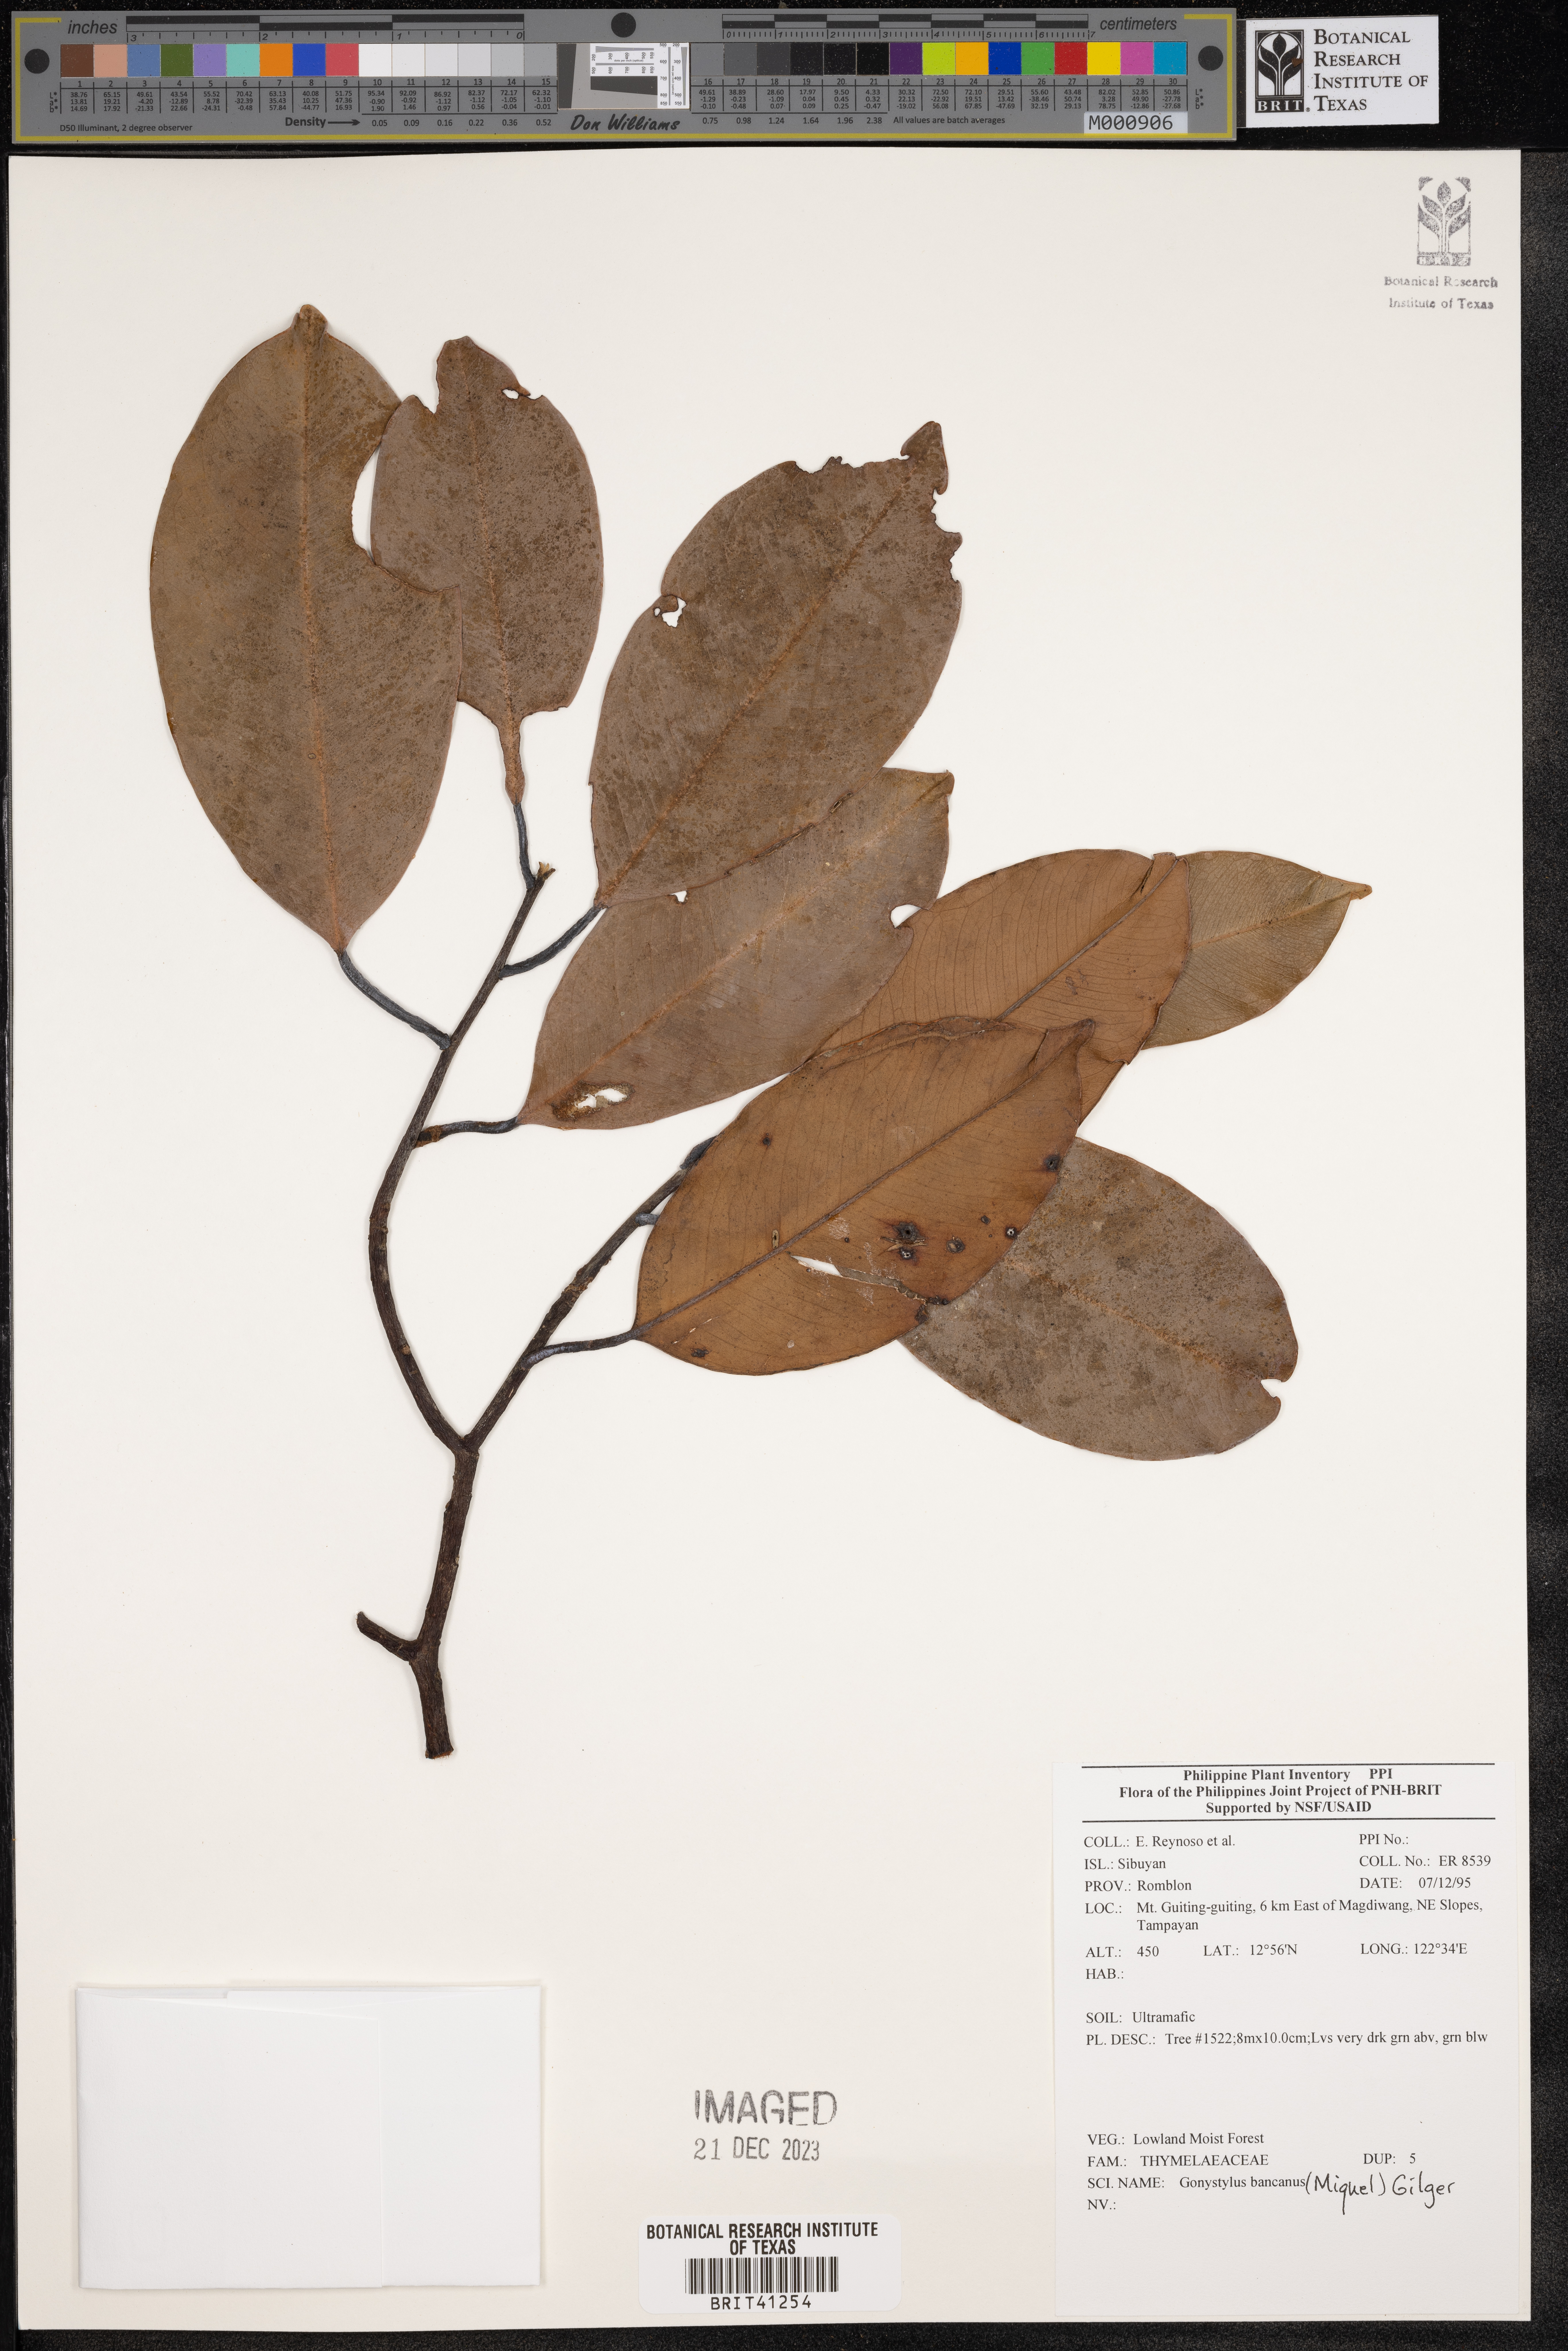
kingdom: Plantae
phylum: Tracheophyta
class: Magnoliopsida
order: Malvales
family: Thymelaeaceae
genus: Gonystylus
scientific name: Gonystylus bancanus
